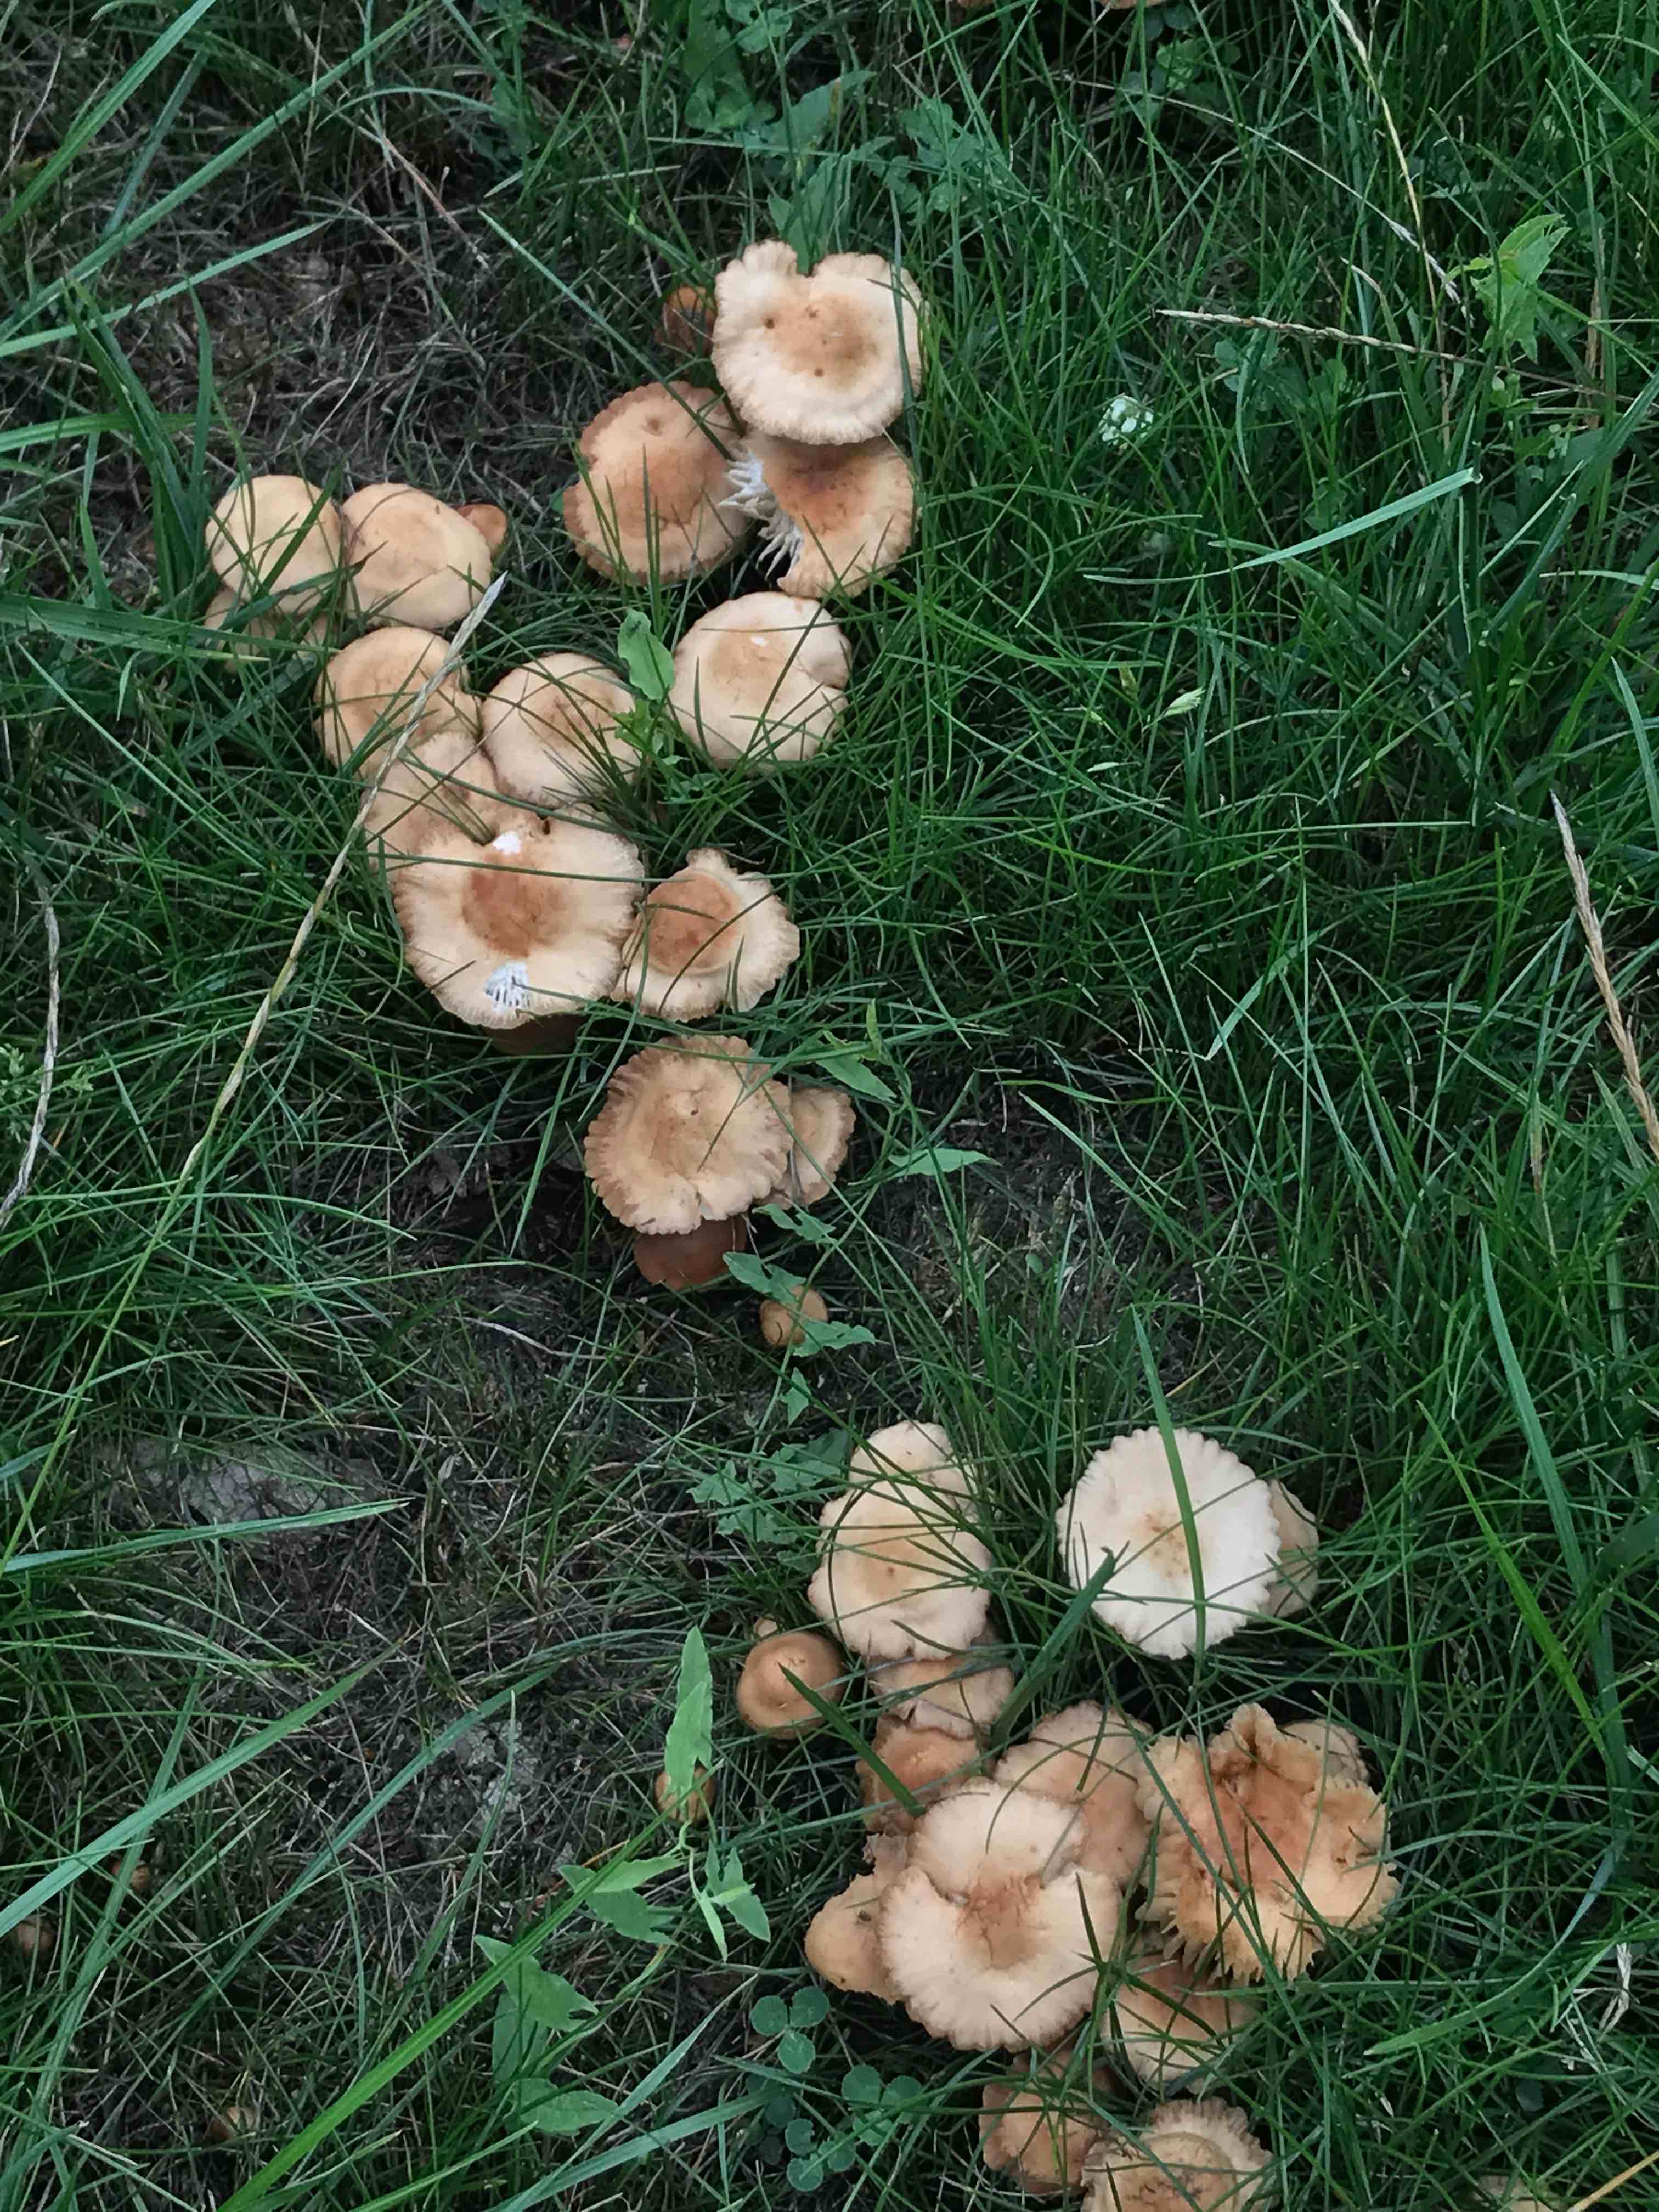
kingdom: Fungi
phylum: Basidiomycota
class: Agaricomycetes
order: Agaricales
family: Marasmiaceae
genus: Marasmius
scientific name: Marasmius oreades
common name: elledans-bruskhat
